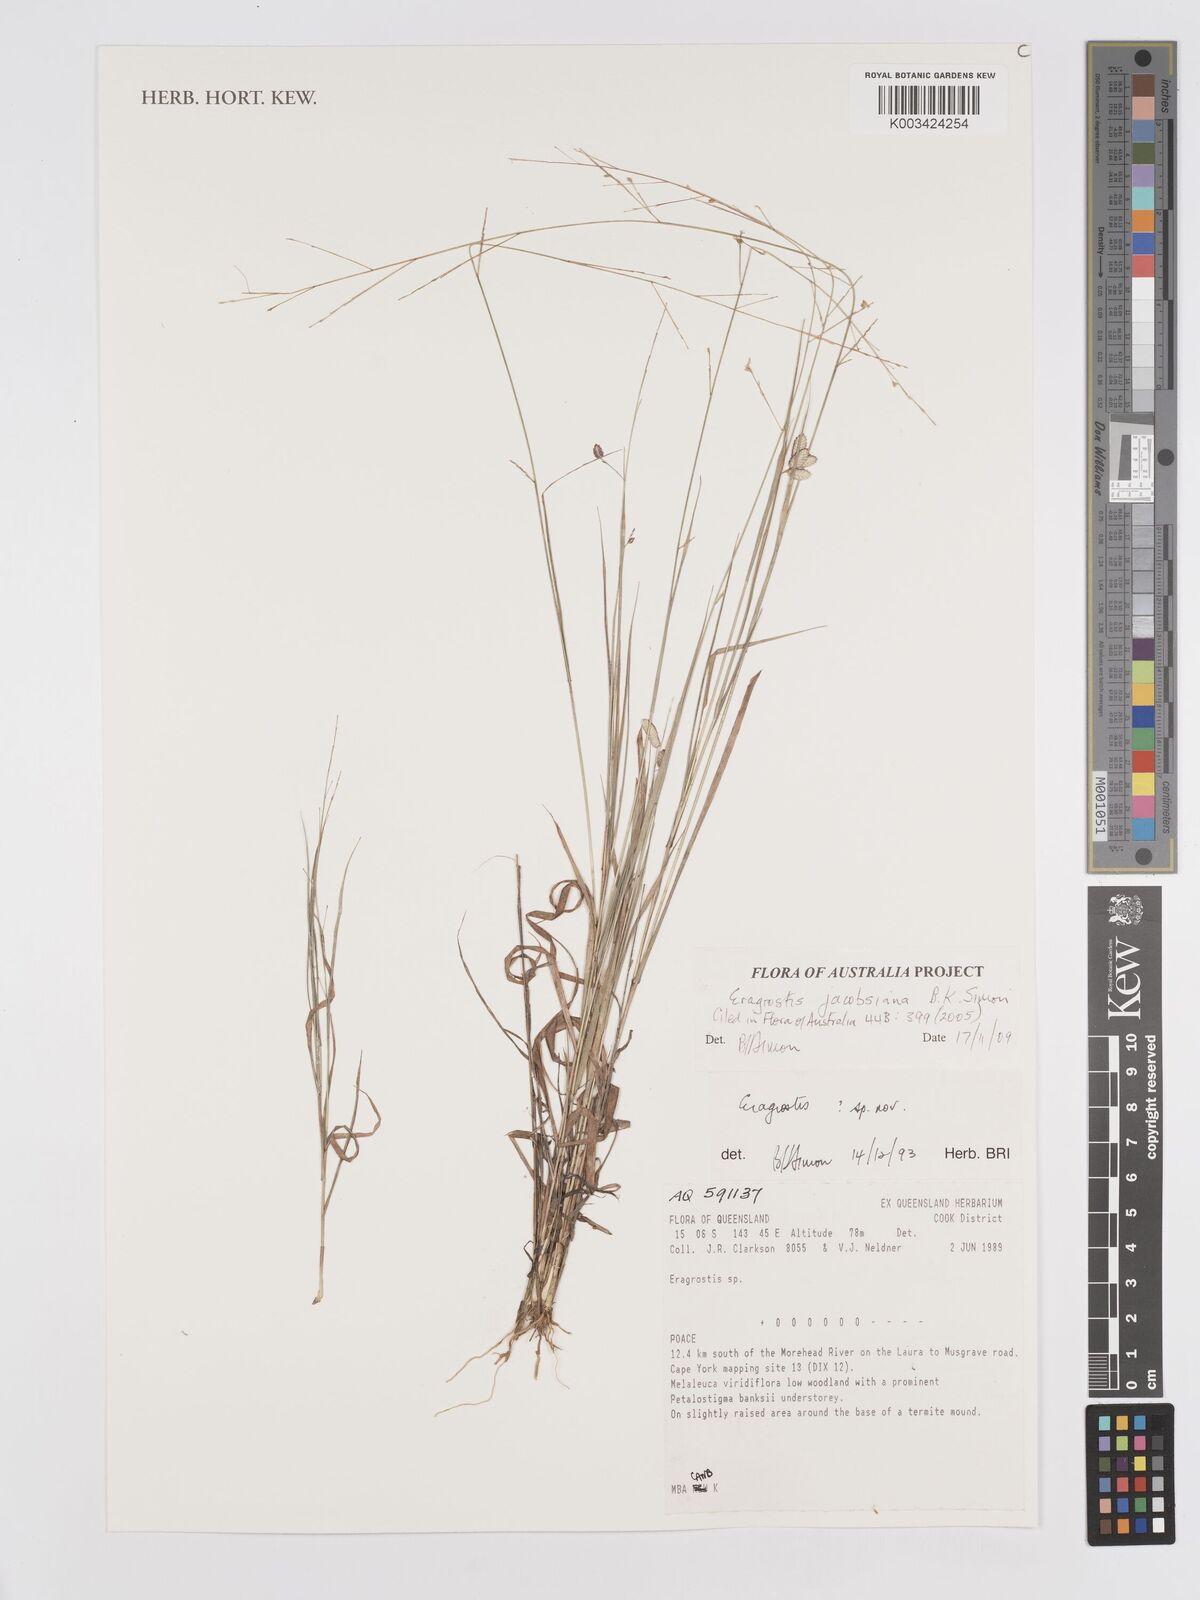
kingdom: Plantae
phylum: Tracheophyta
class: Liliopsida
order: Poales
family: Poaceae
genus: Eragrostis
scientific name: Eragrostis jacobsiana
